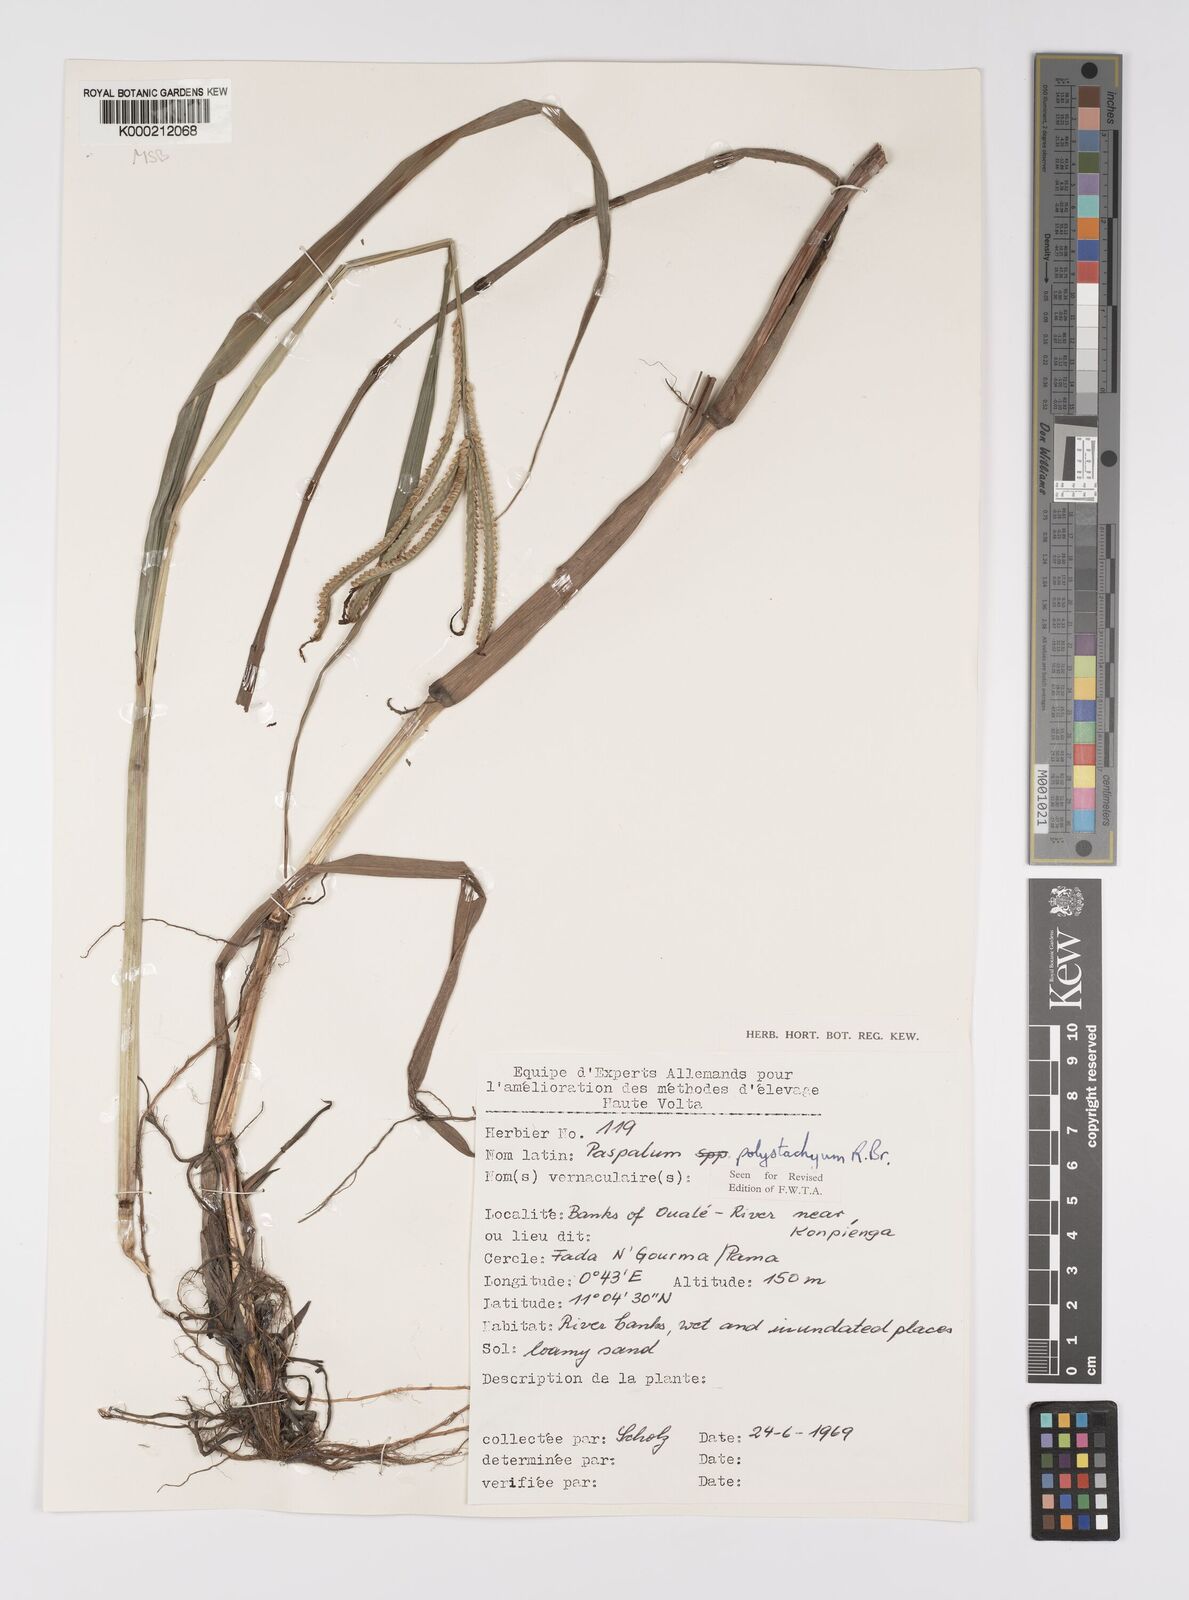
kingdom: Plantae
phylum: Tracheophyta
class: Liliopsida
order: Poales
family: Poaceae
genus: Paspalum
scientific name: Paspalum scrobiculatum
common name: Kodo millet
